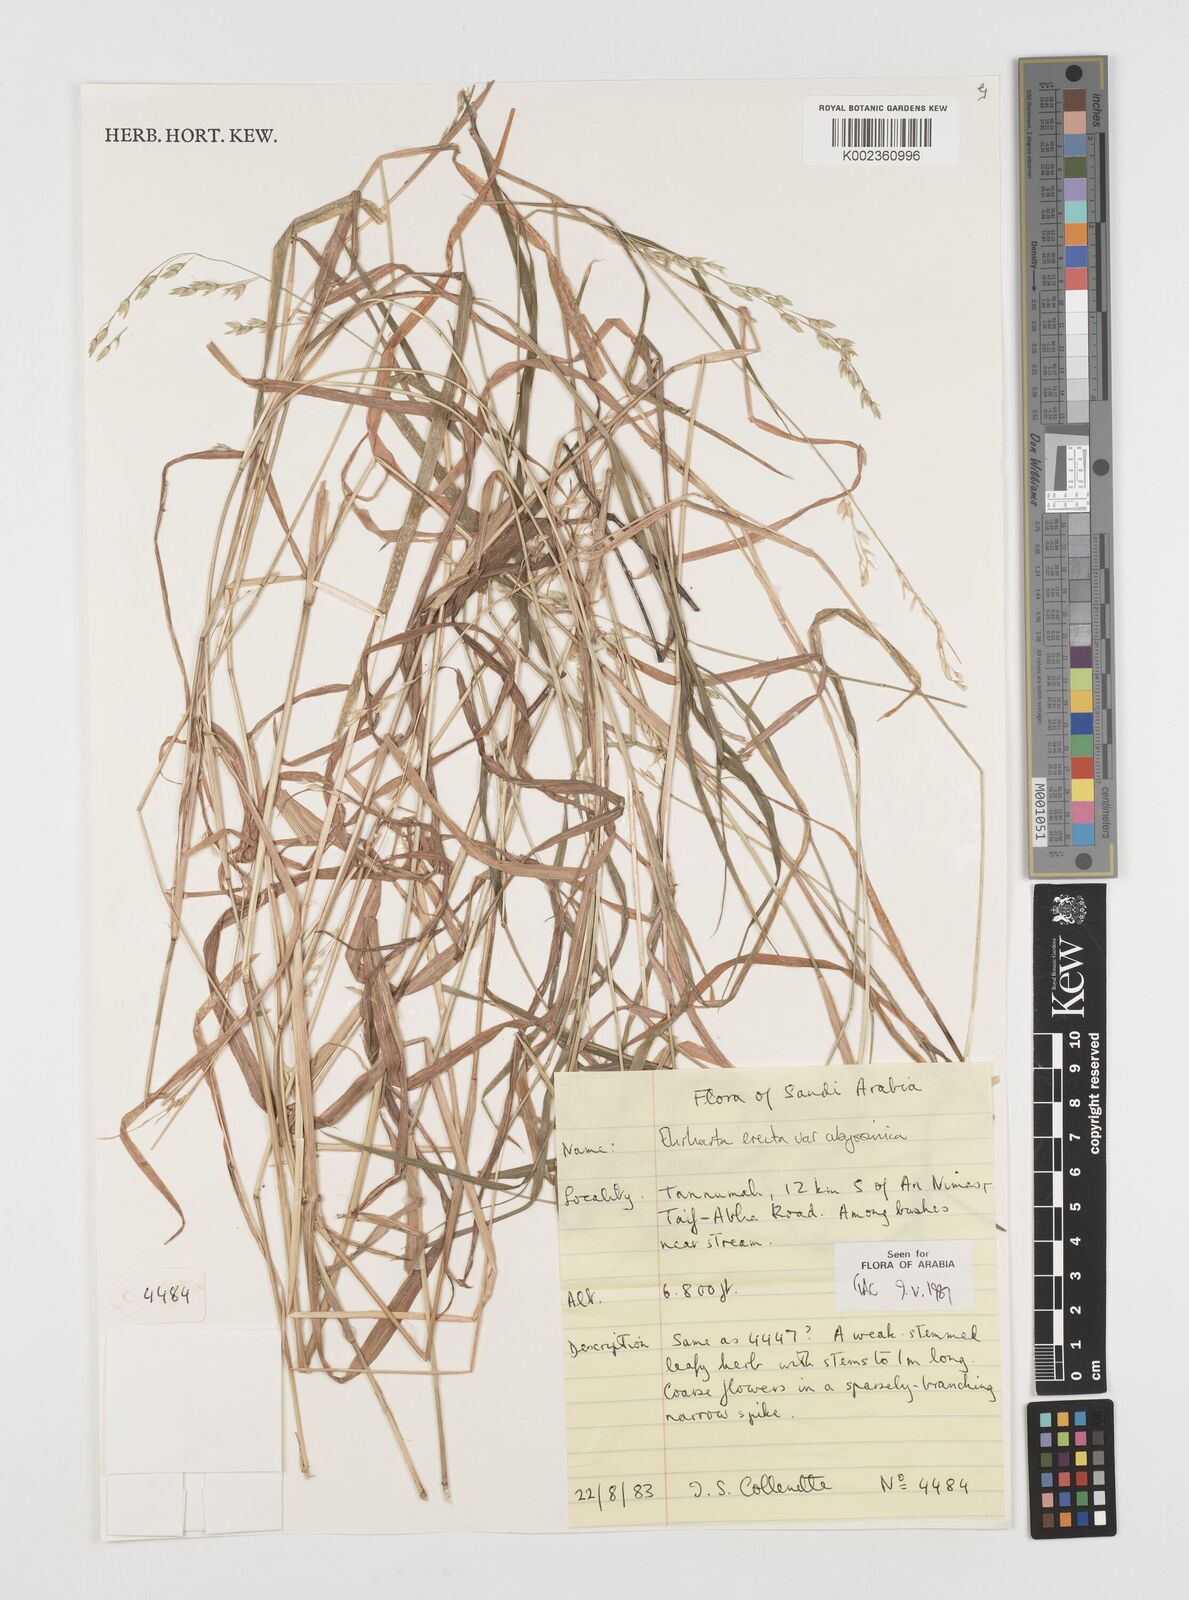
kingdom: Plantae
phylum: Tracheophyta
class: Liliopsida
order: Poales
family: Poaceae
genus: Ehrharta
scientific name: Ehrharta erecta
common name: Panic veldtgrass
